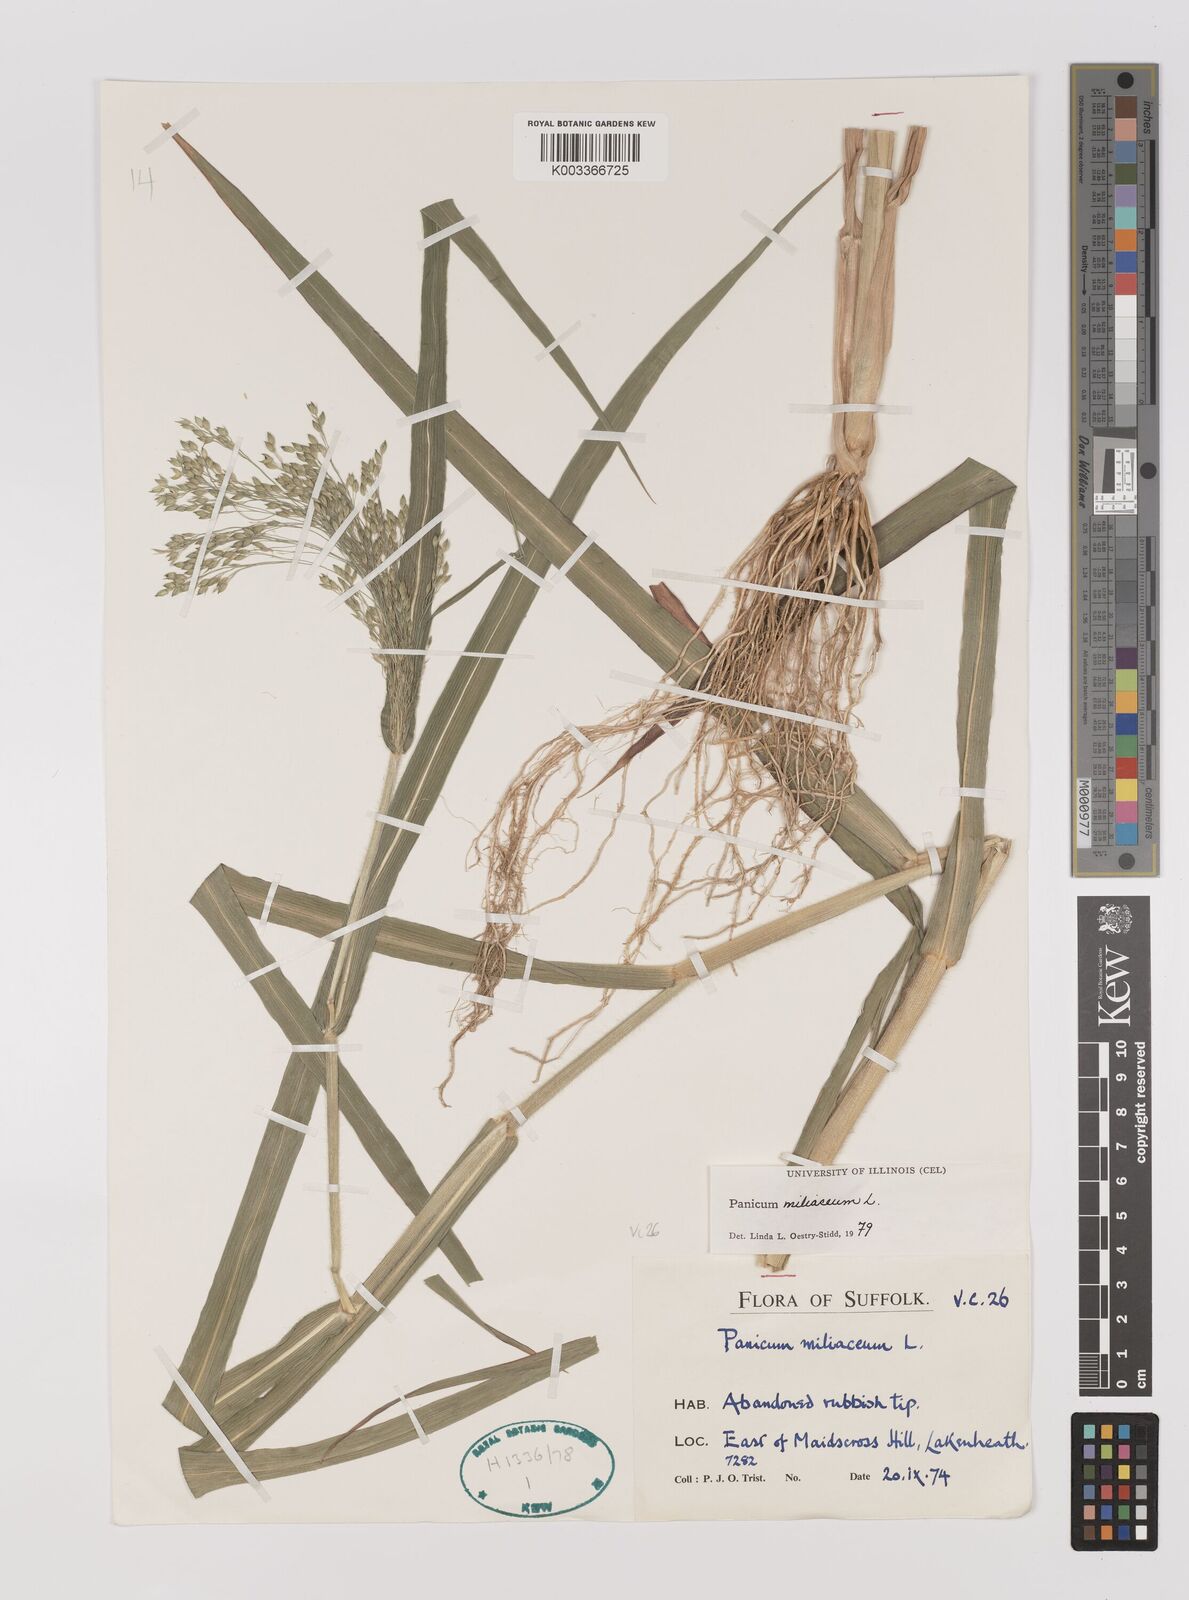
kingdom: Plantae
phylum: Tracheophyta
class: Liliopsida
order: Poales
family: Poaceae
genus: Panicum
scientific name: Panicum miliaceum
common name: Common millet
